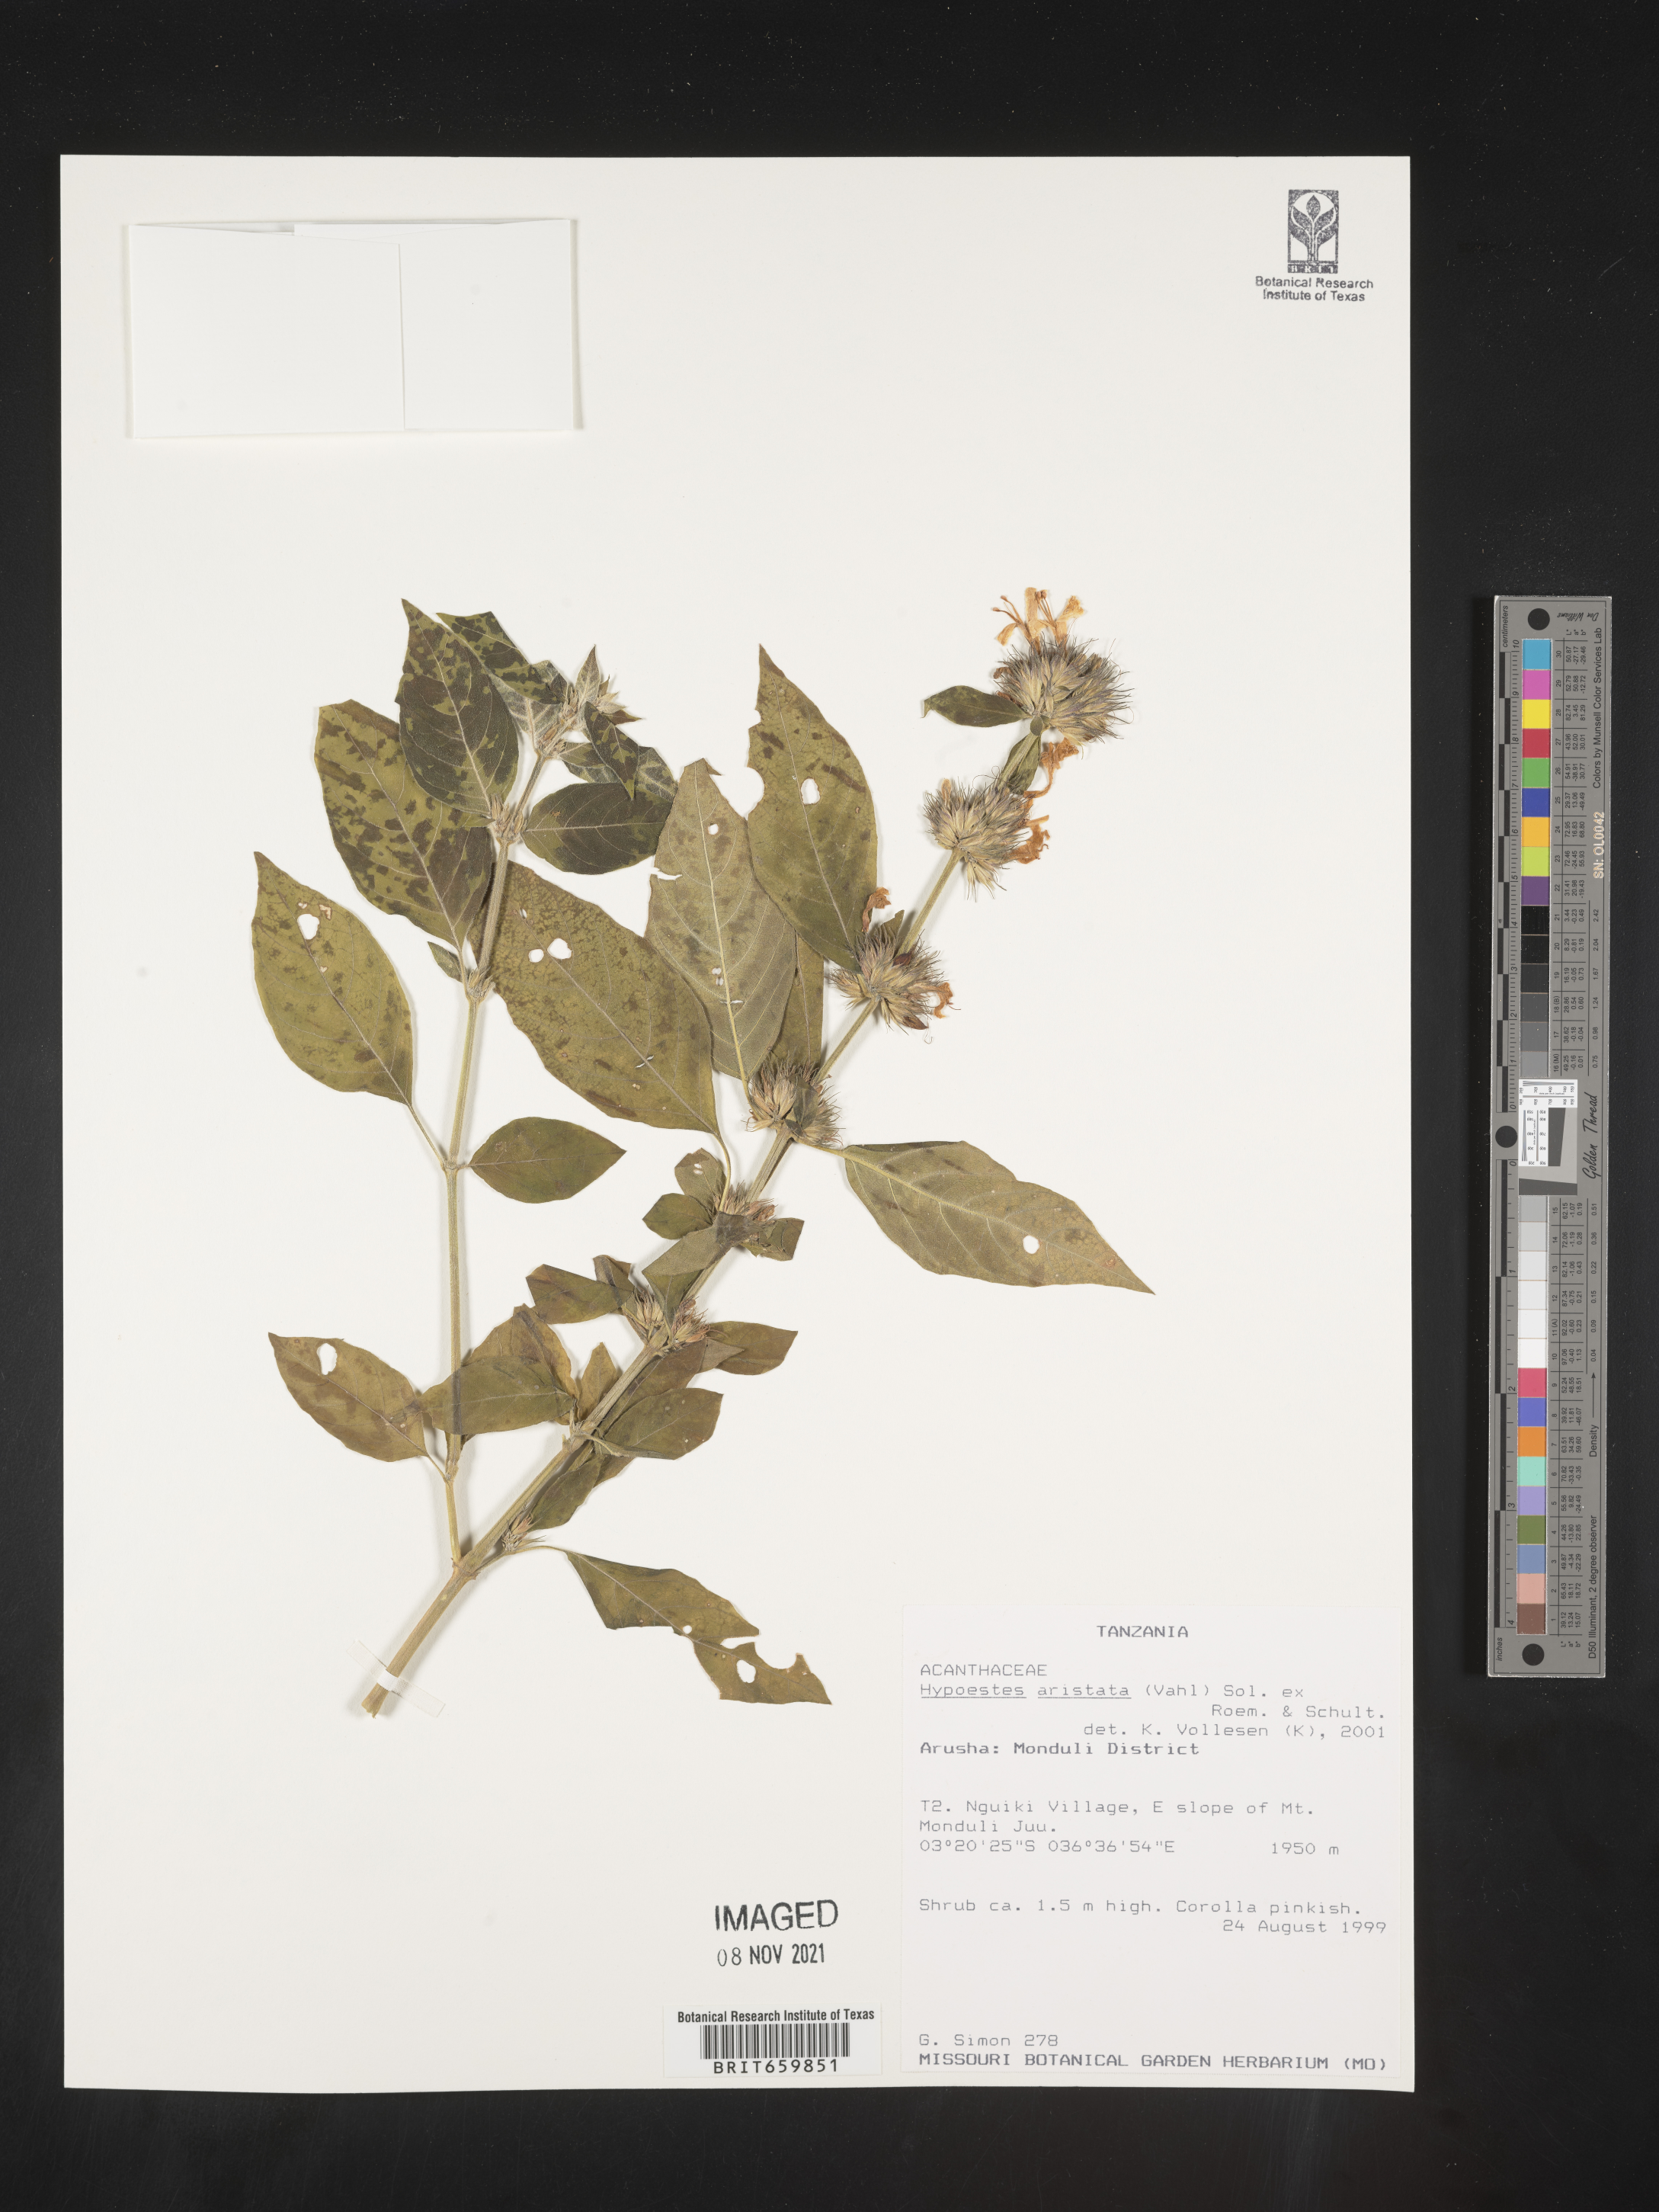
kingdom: Plantae
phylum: Tracheophyta
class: Magnoliopsida
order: Lamiales
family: Acanthaceae
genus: Hypoestes
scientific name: Hypoestes aristata
